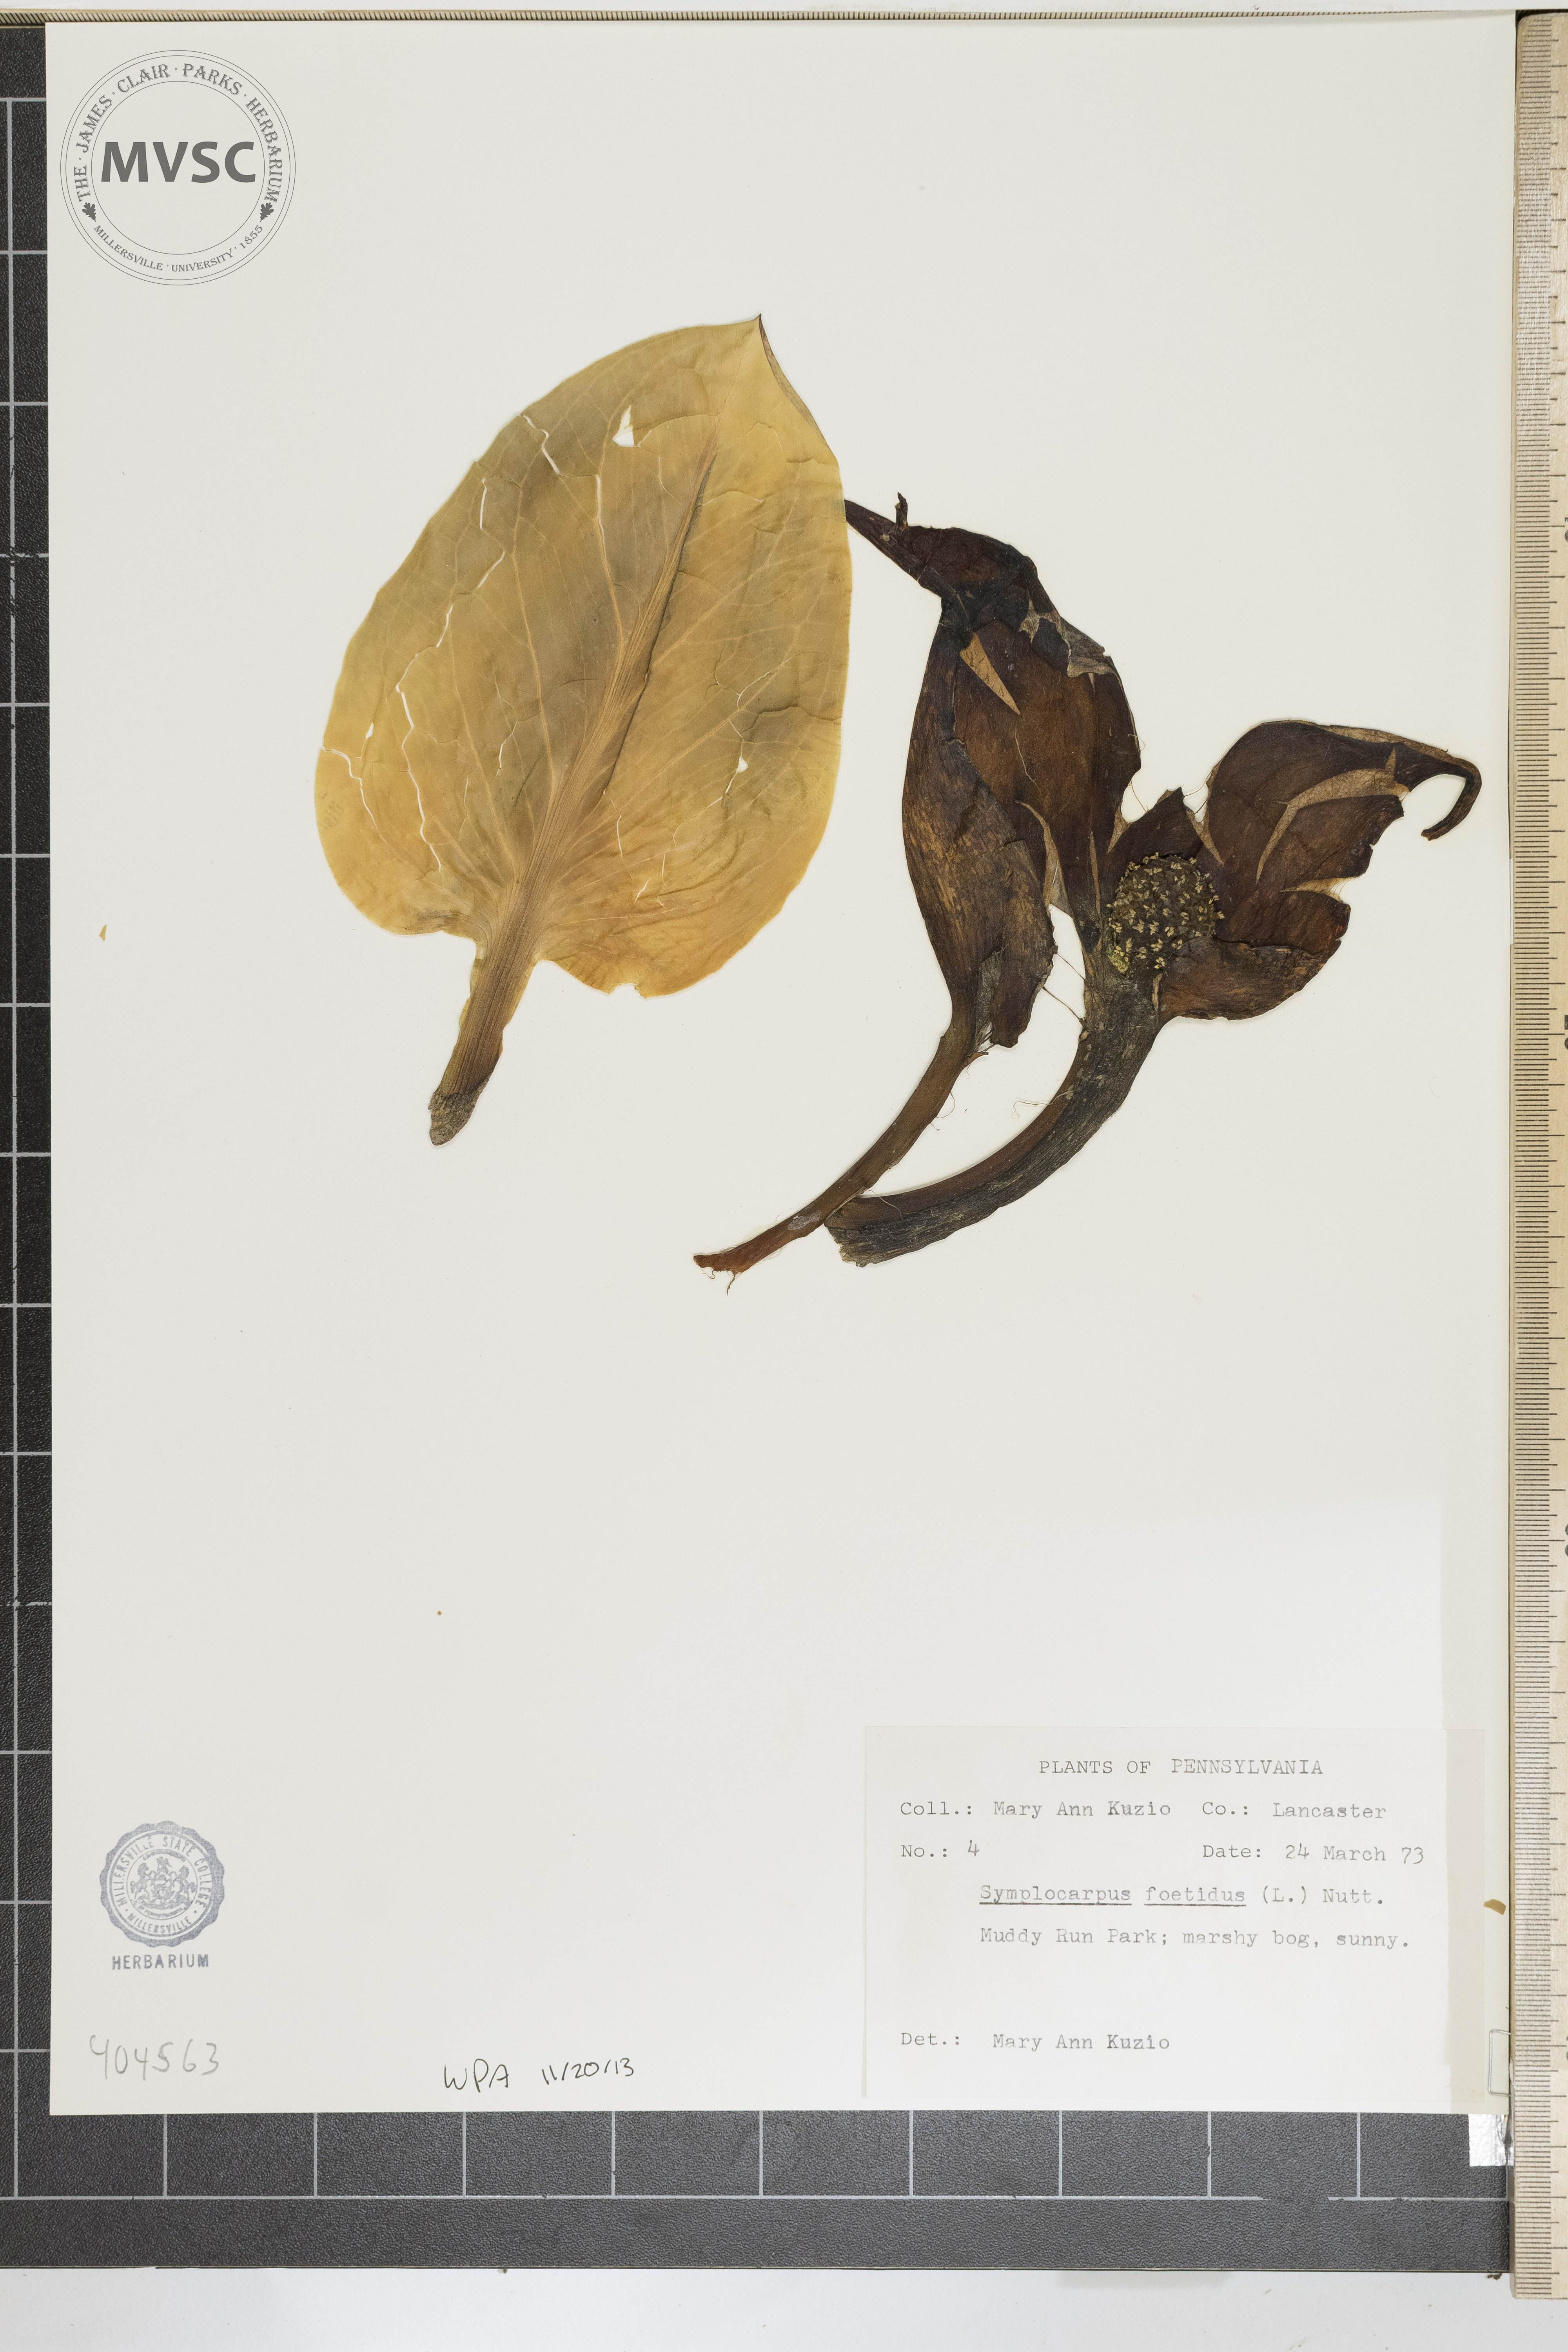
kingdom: Plantae
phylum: Tracheophyta
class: Liliopsida
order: Alismatales
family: Araceae
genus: Symplocarpus
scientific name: Symplocarpus foetidus
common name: Eastern skunk cabbage
